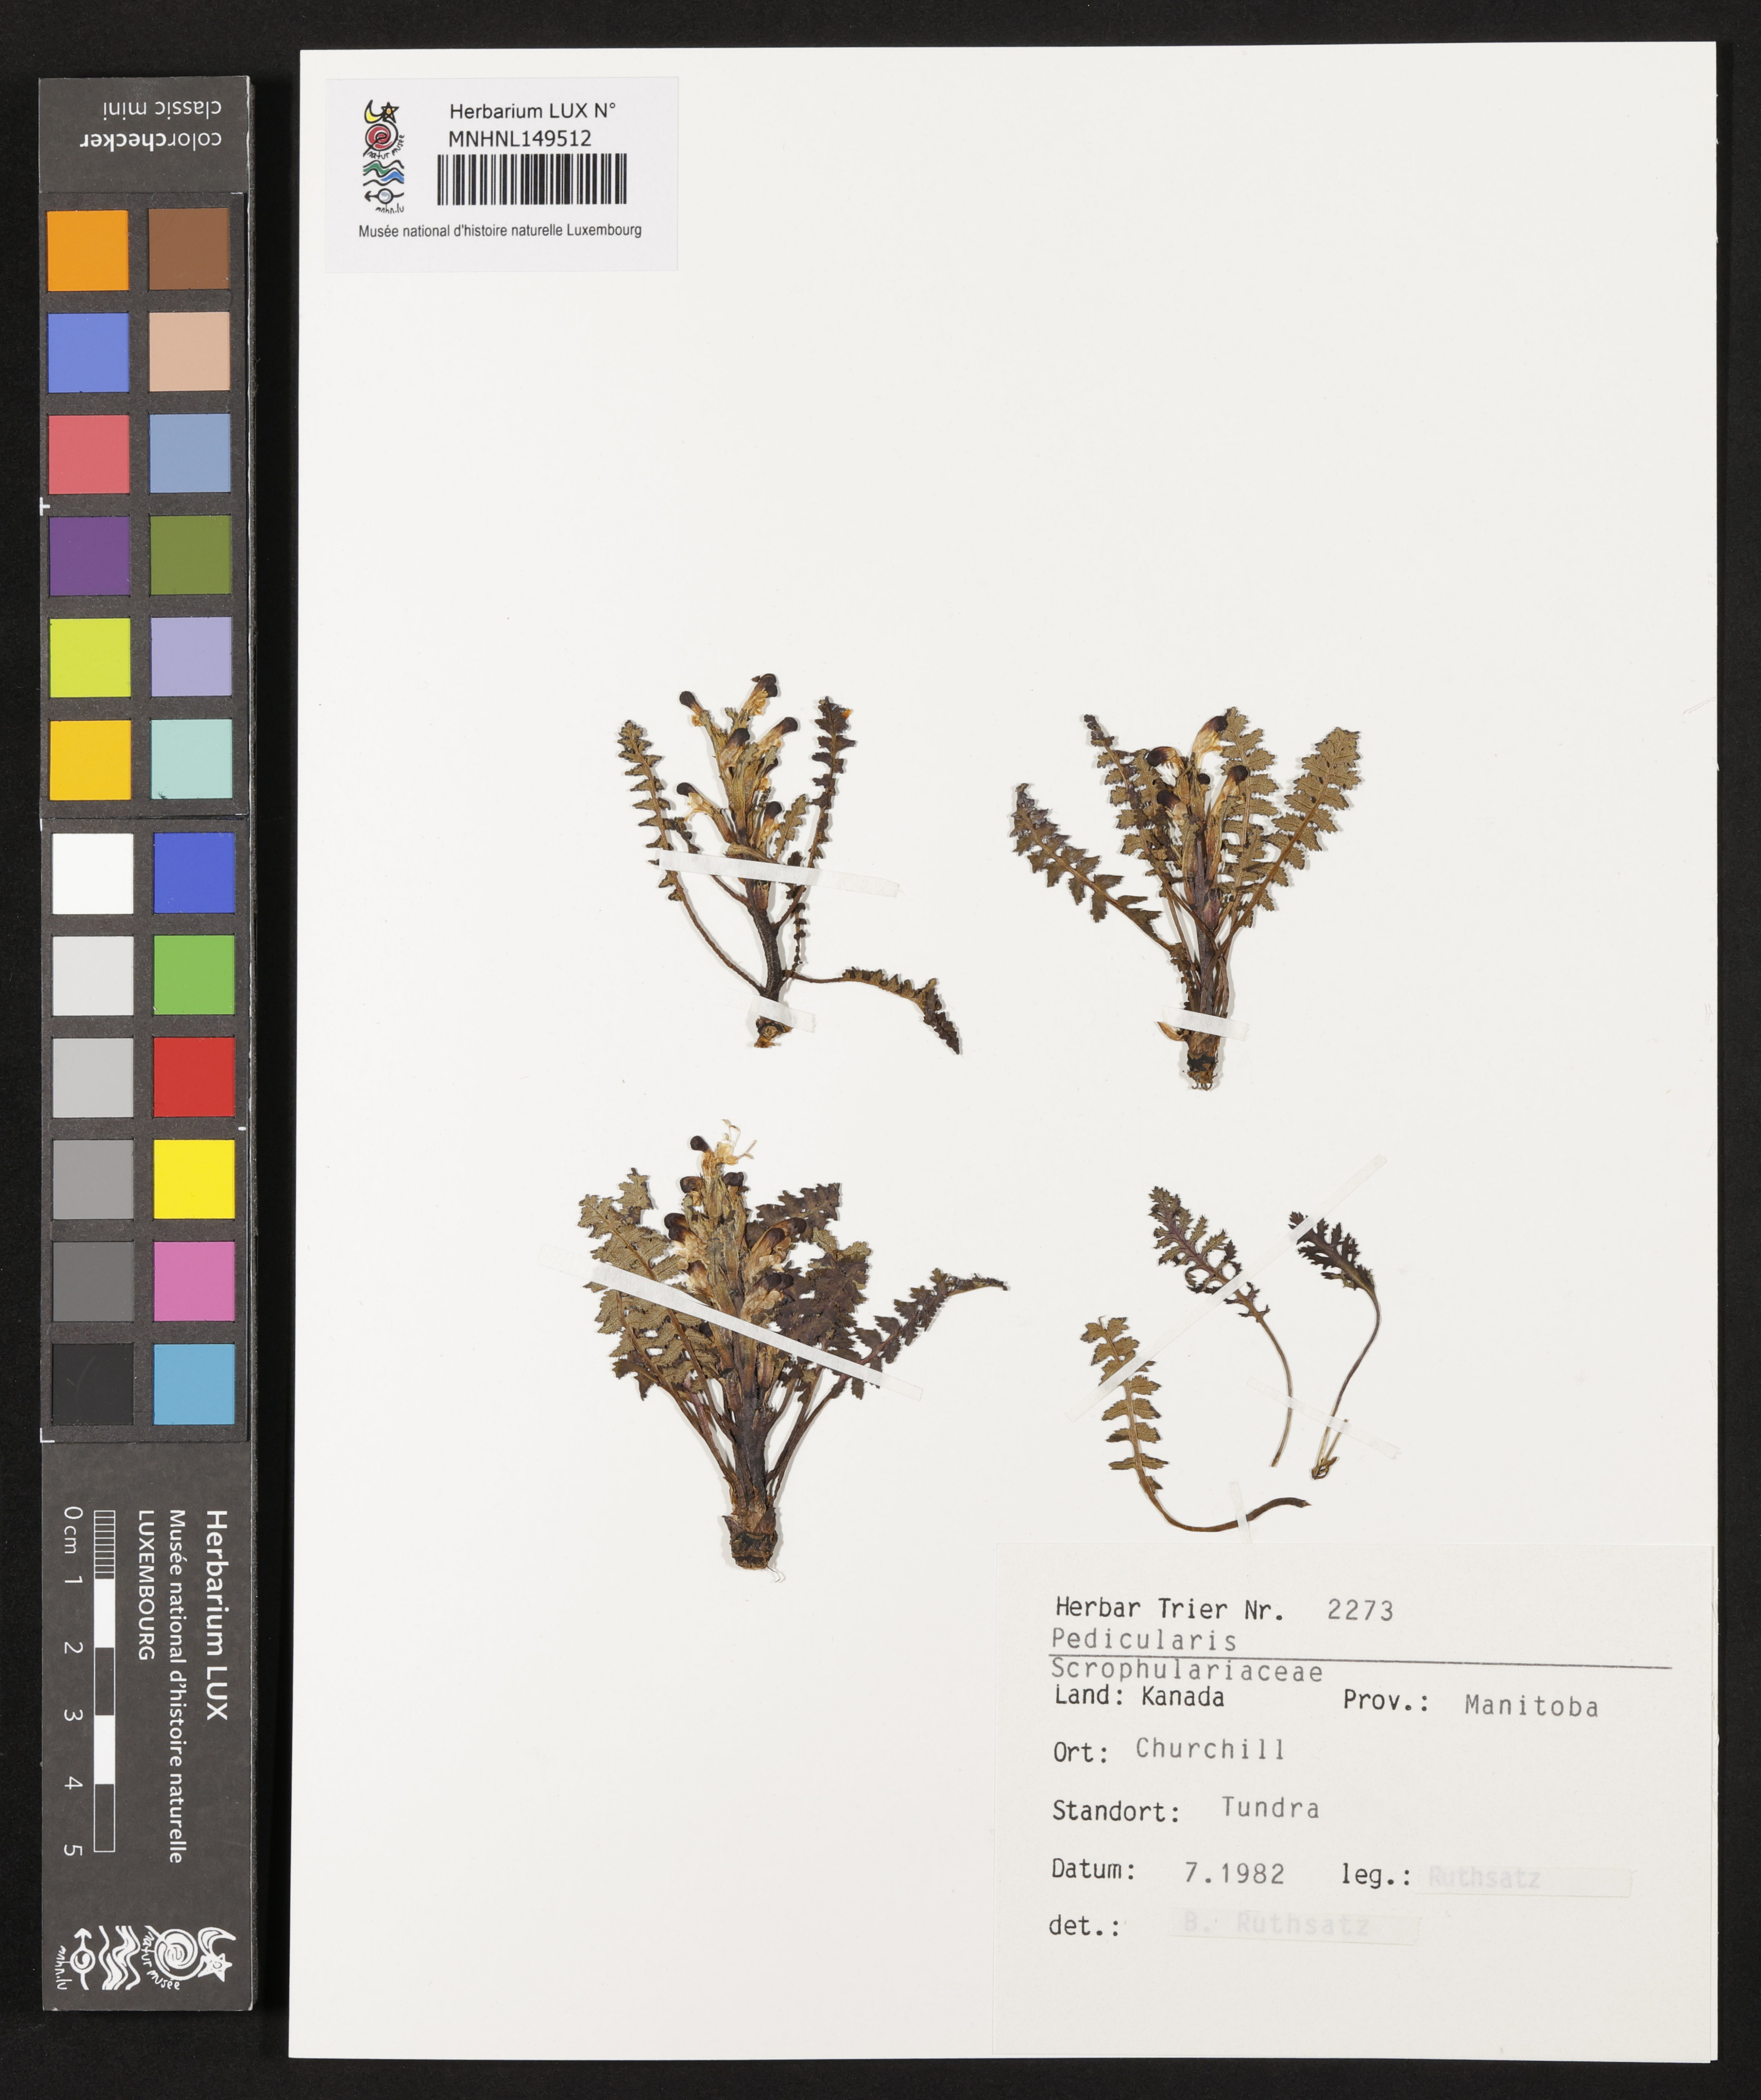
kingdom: Plantae
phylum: Tracheophyta
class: Magnoliopsida
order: Lamiales
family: Orobanchaceae
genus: Pedicularis
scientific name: Pedicularis
